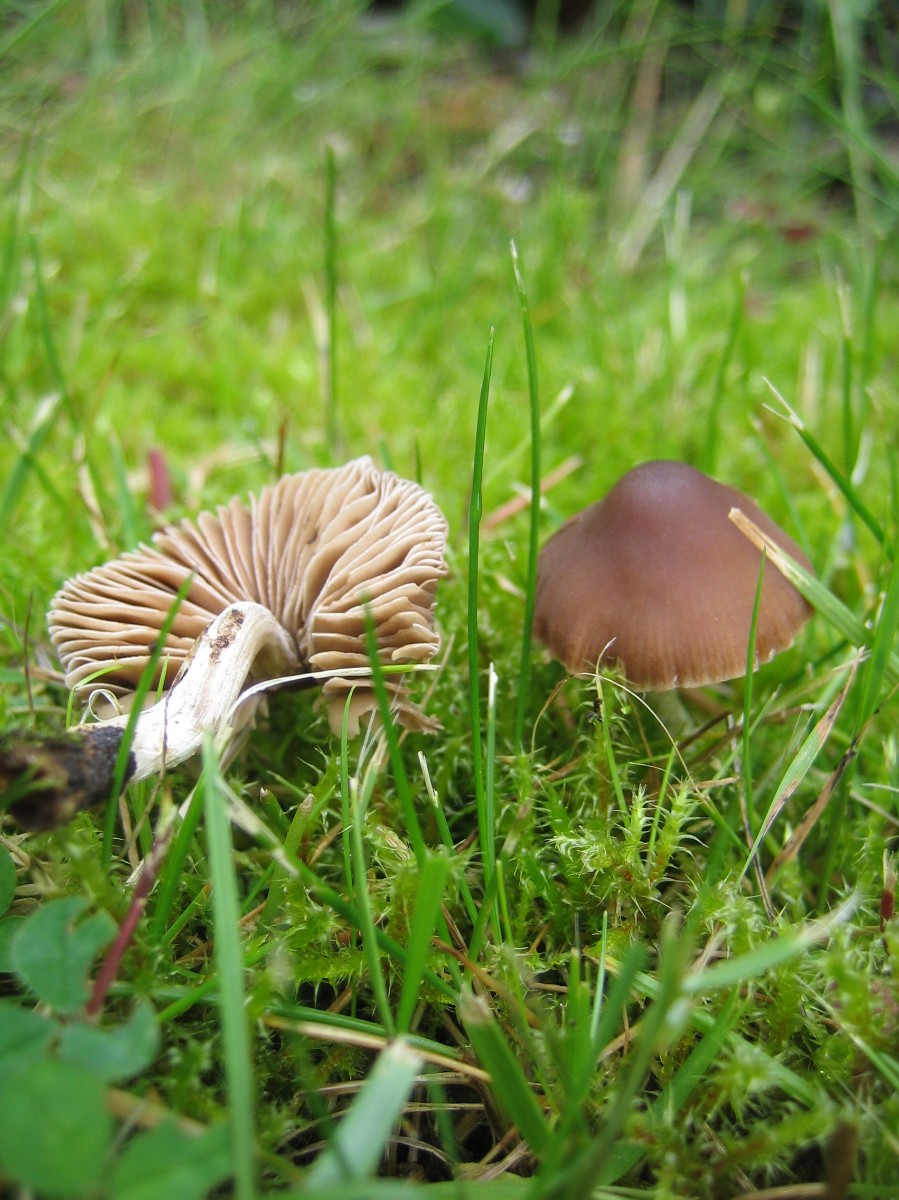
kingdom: Fungi
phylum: Basidiomycota
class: Agaricomycetes
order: Agaricales
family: Hymenogastraceae
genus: Naucoria
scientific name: Naucoria bohemica
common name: birke-knaphat
